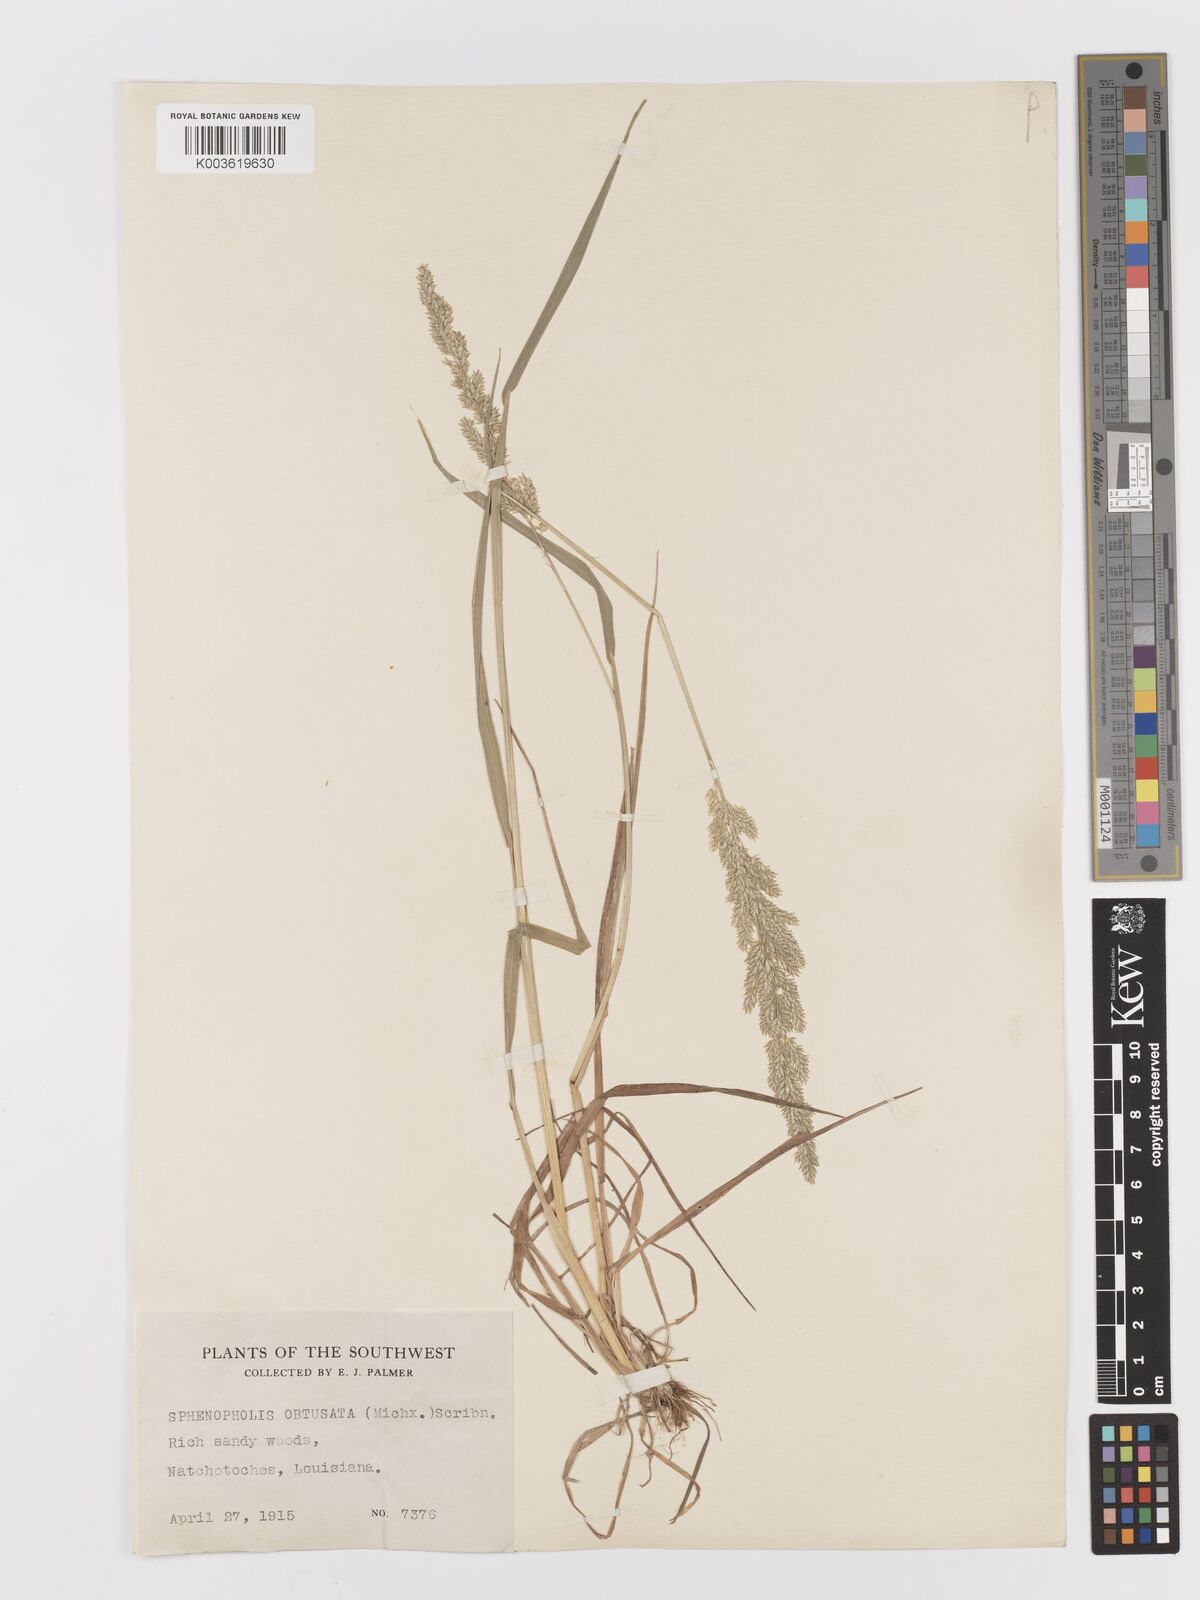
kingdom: Plantae
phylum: Tracheophyta
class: Liliopsida
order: Poales
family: Poaceae
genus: Sphenopholis
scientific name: Sphenopholis obtusata
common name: Prairie grass
